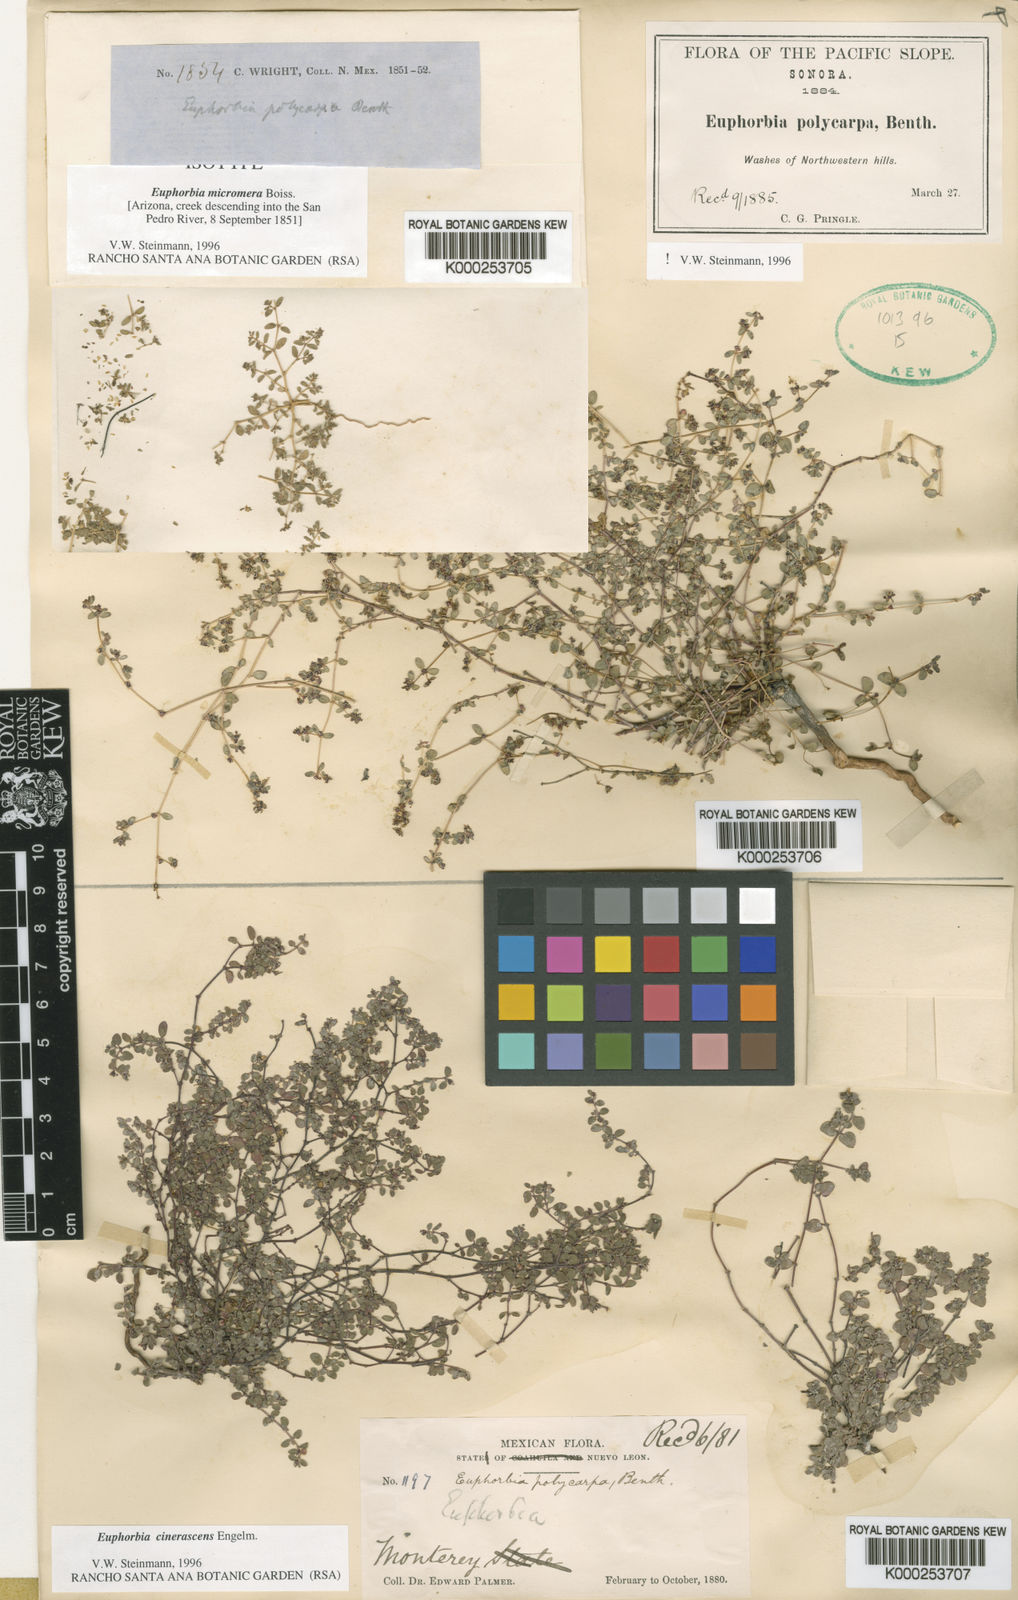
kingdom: Plantae
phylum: Tracheophyta
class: Magnoliopsida
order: Malpighiales
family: Euphorbiaceae
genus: Euphorbia
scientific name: Euphorbia micromera
